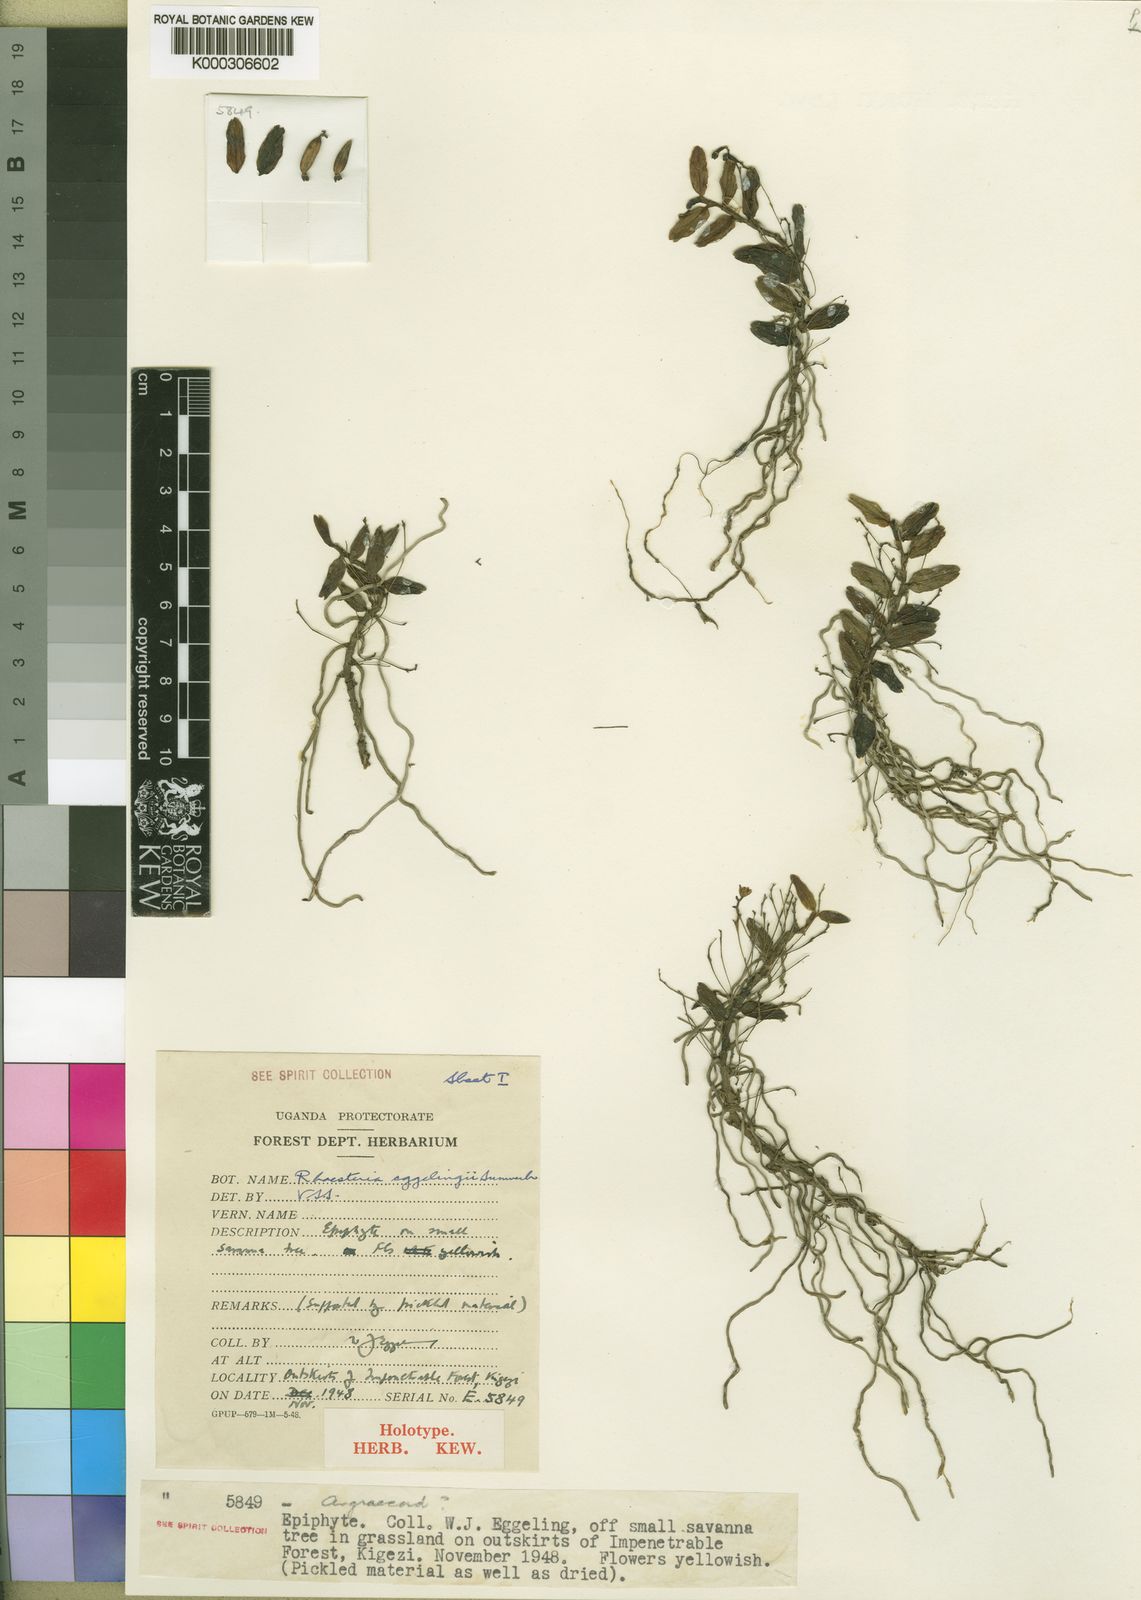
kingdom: Plantae
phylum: Tracheophyta
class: Liliopsida
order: Asparagales
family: Orchidaceae
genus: Rhipidoglossum
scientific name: Rhipidoglossum eggelingii
